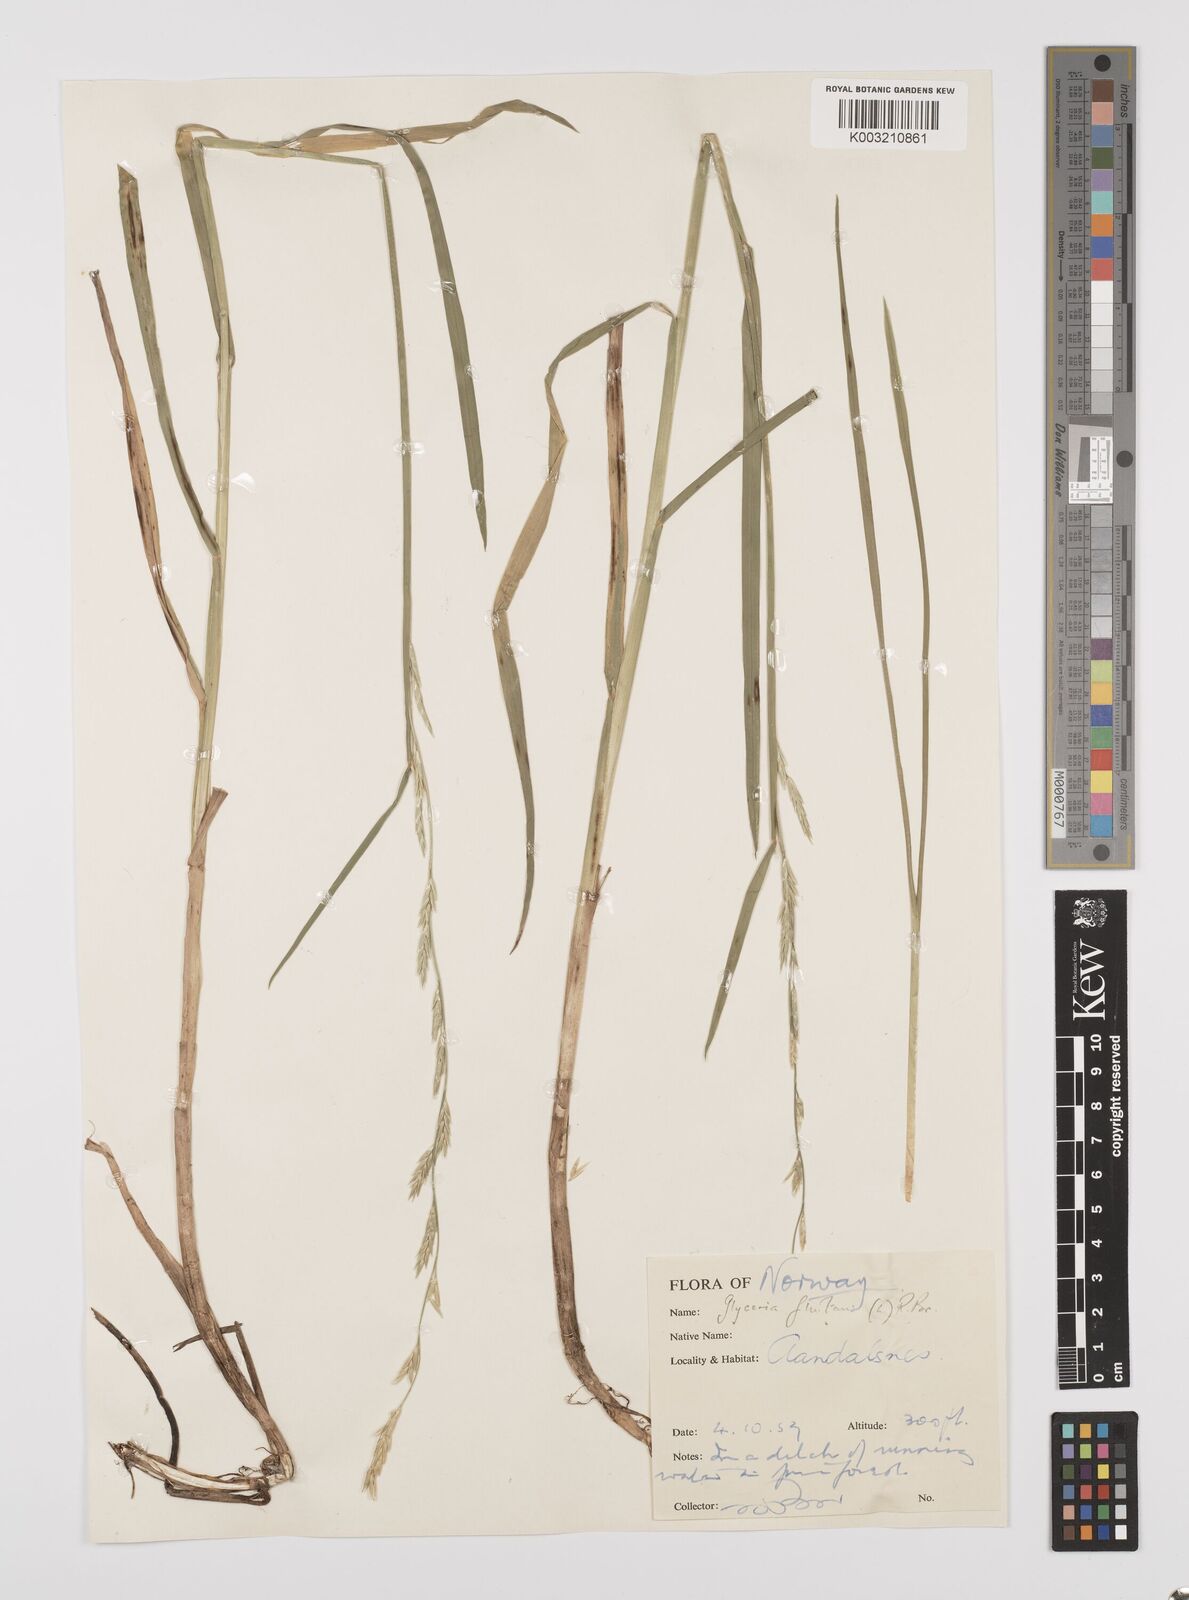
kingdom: Plantae
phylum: Tracheophyta
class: Liliopsida
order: Poales
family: Poaceae
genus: Glyceria
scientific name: Glyceria fluitans
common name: Floating sweet-grass
